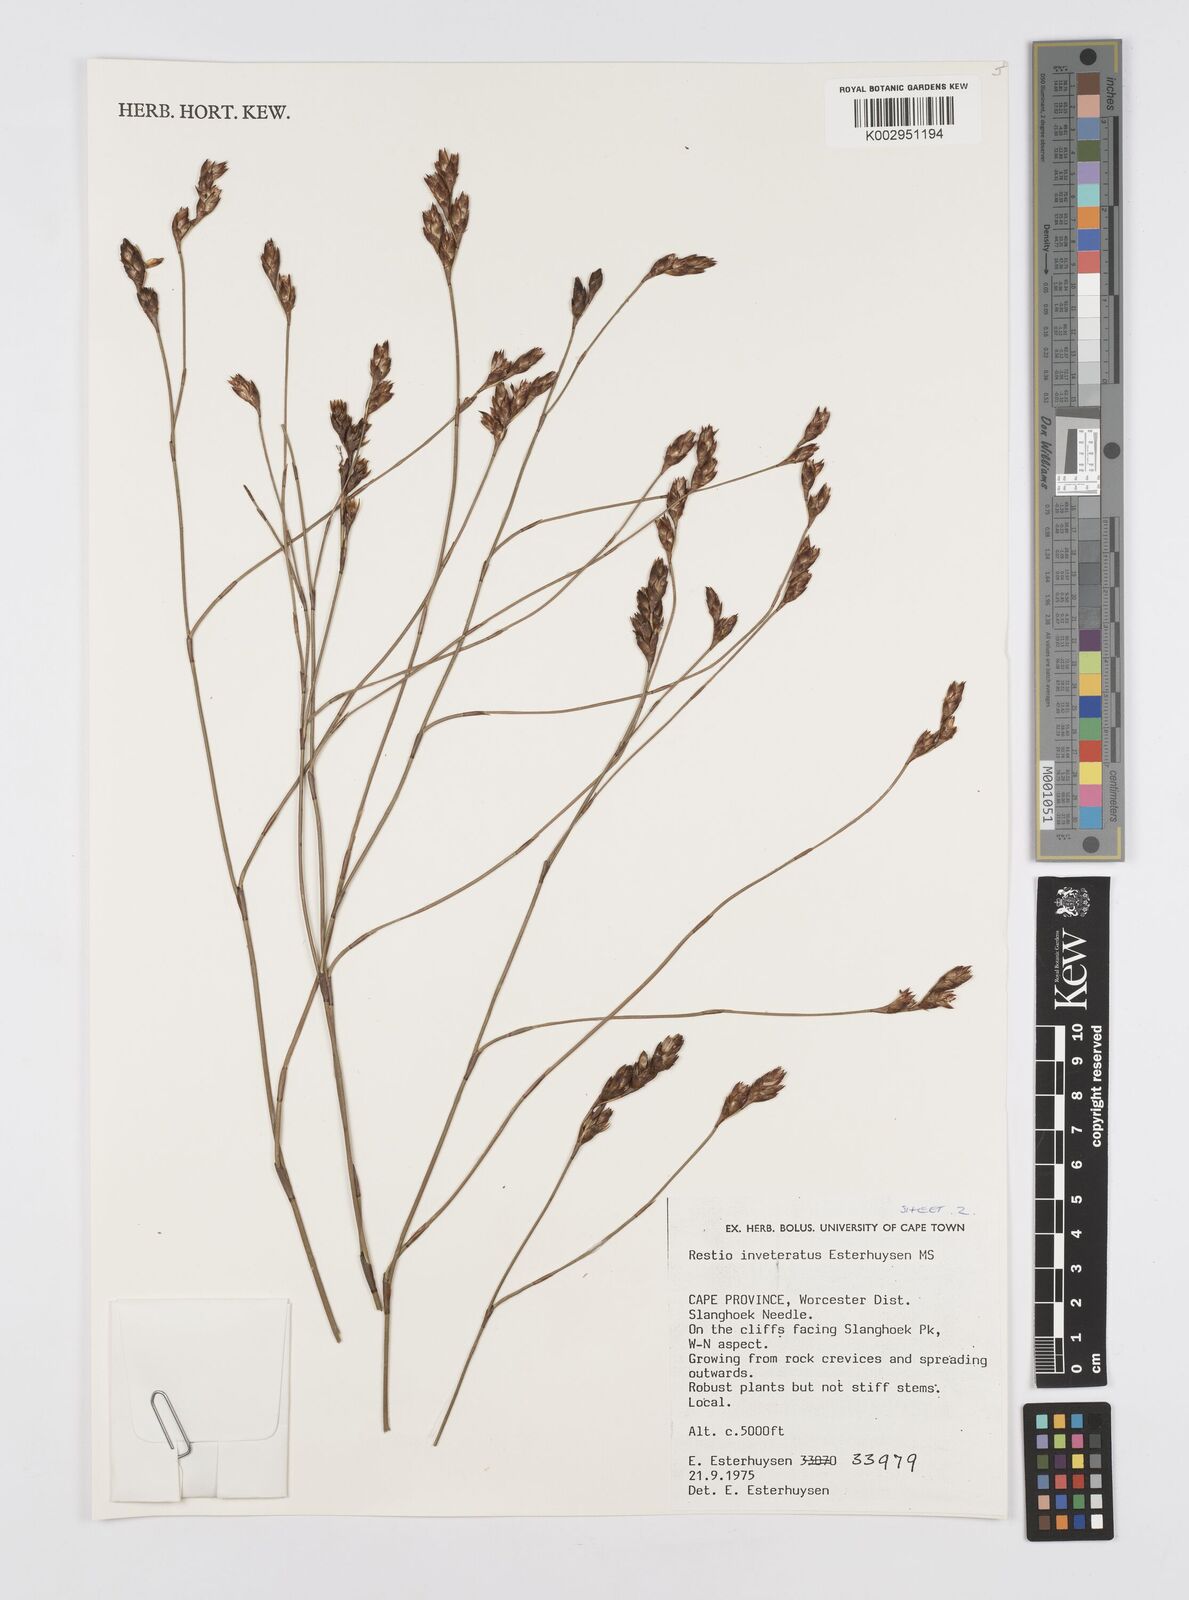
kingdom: Plantae
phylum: Tracheophyta
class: Liliopsida
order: Poales
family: Restionaceae
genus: Restio
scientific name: Restio inveteratus
